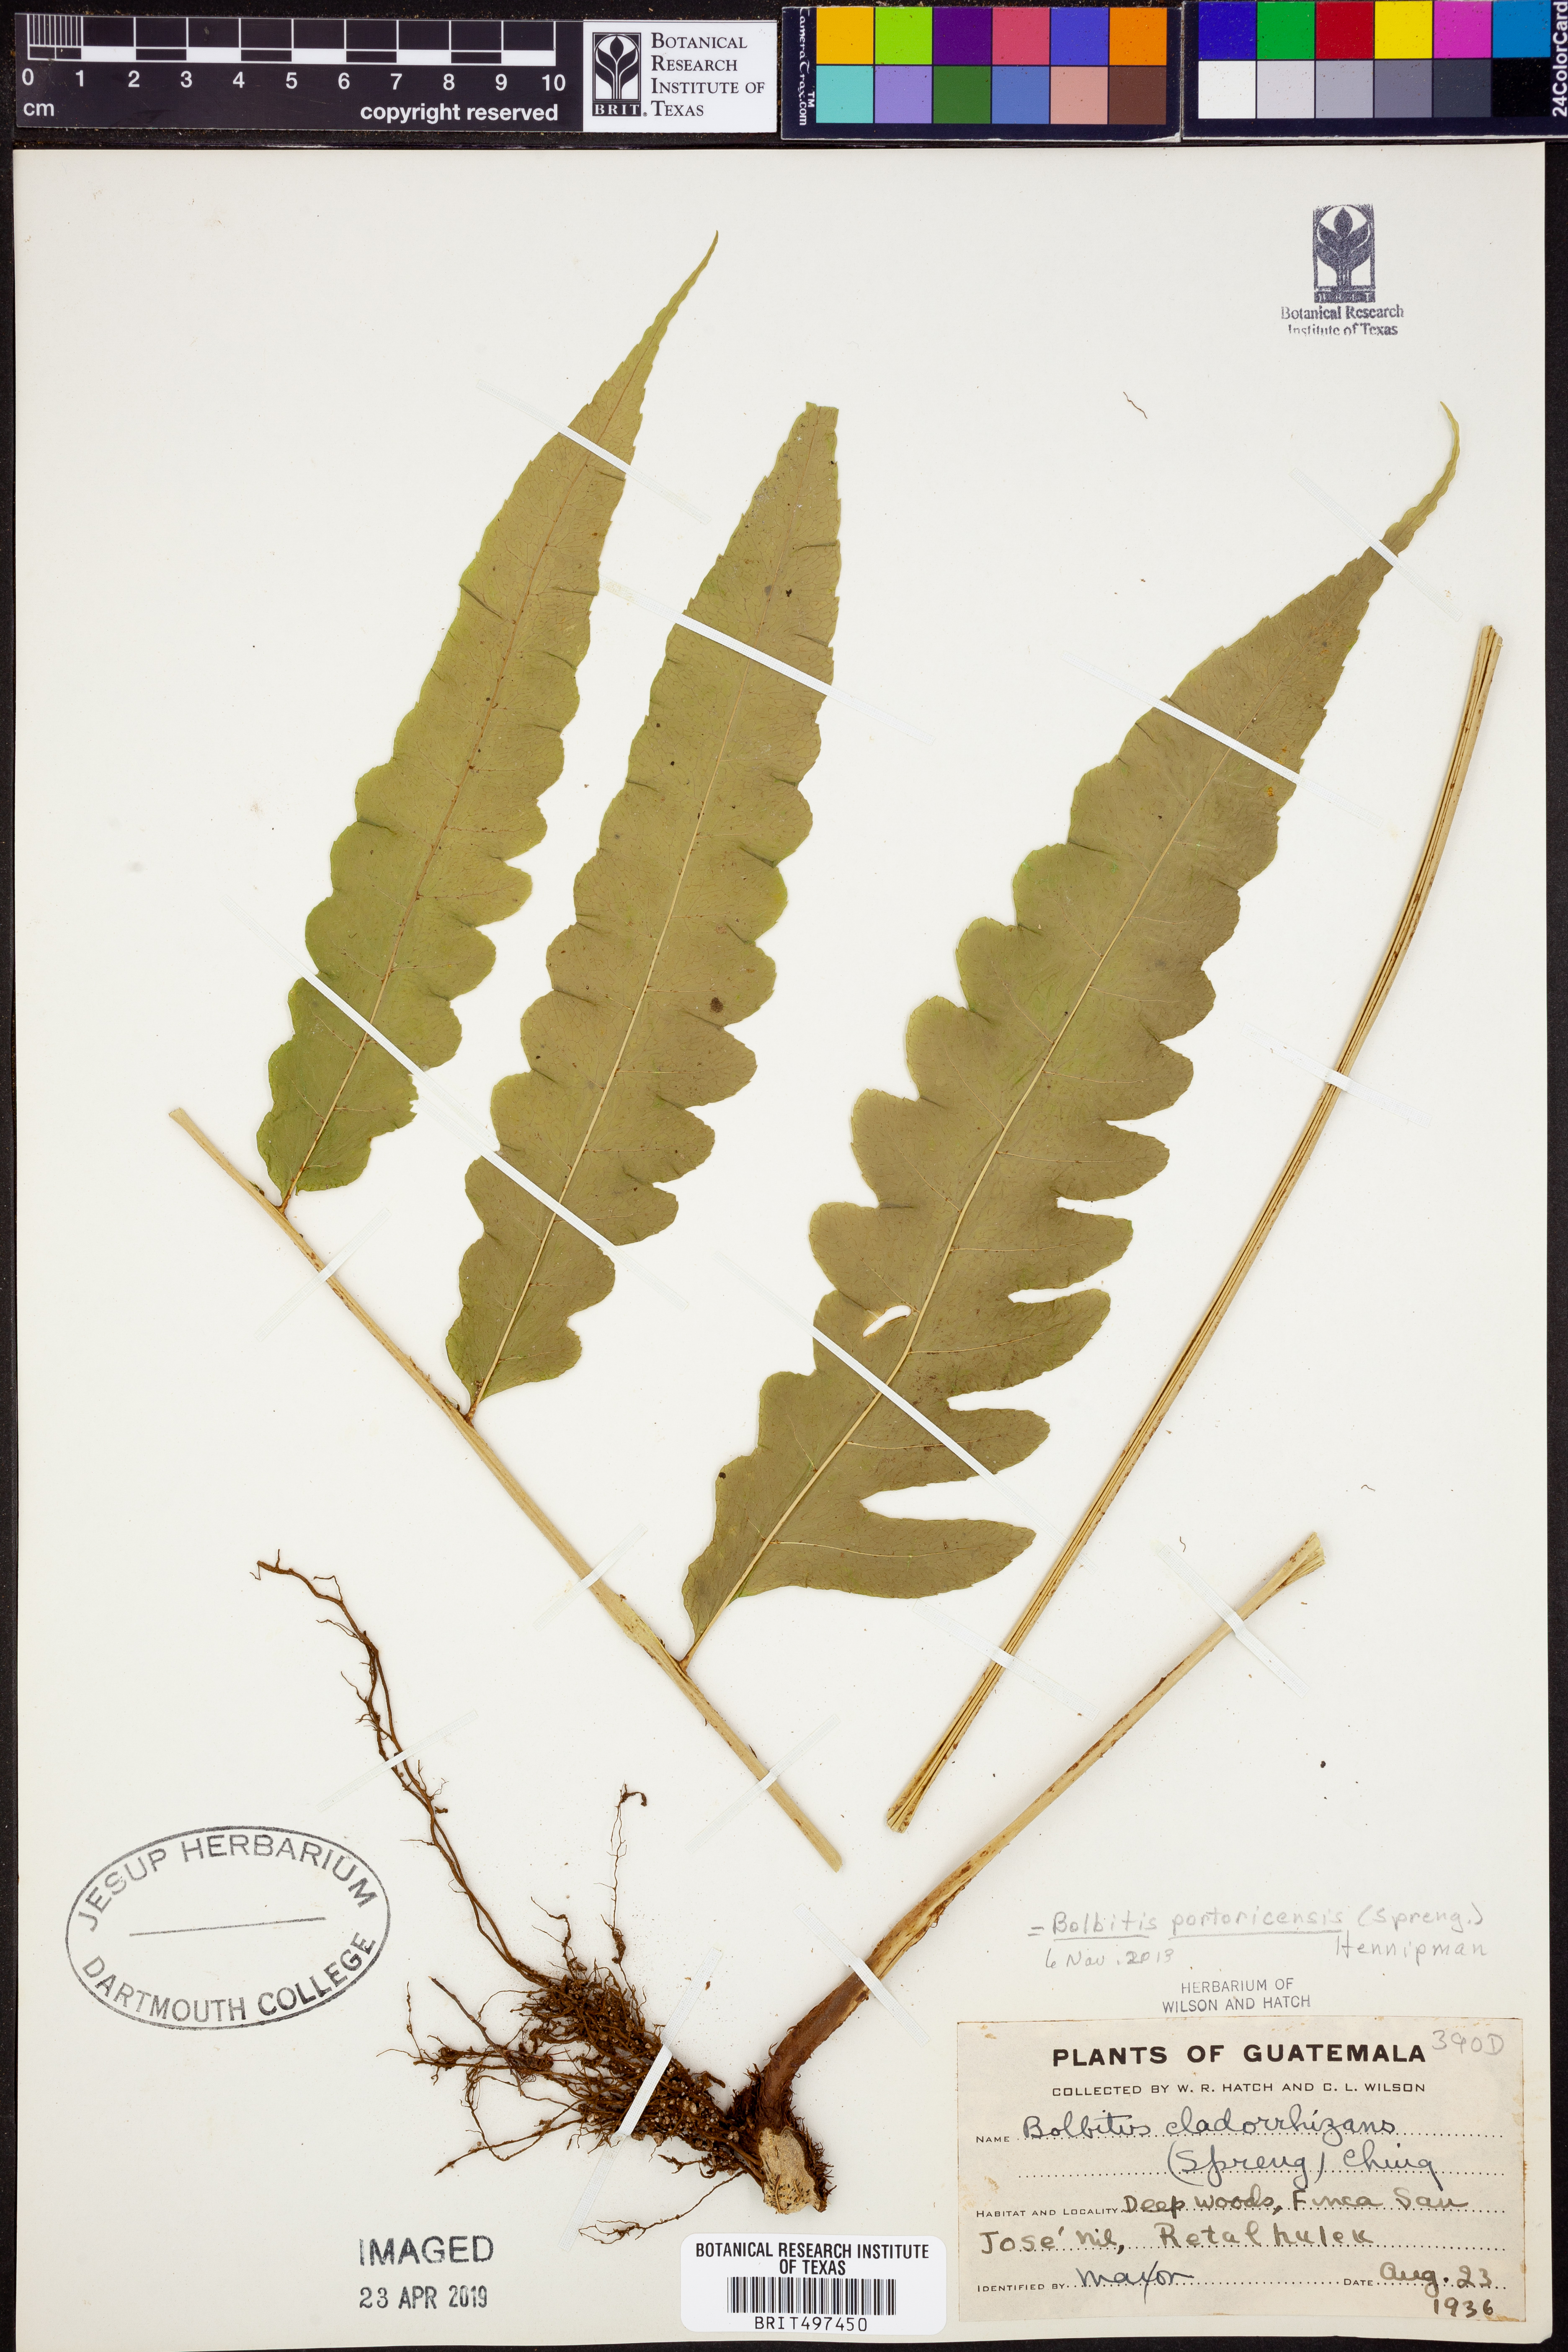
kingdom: Plantae
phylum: Tracheophyta
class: Polypodiopsida
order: Polypodiales
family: Dryopteridaceae
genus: Bolbitis
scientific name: Bolbitis portoricensis
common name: Puerto rico creepingfer
